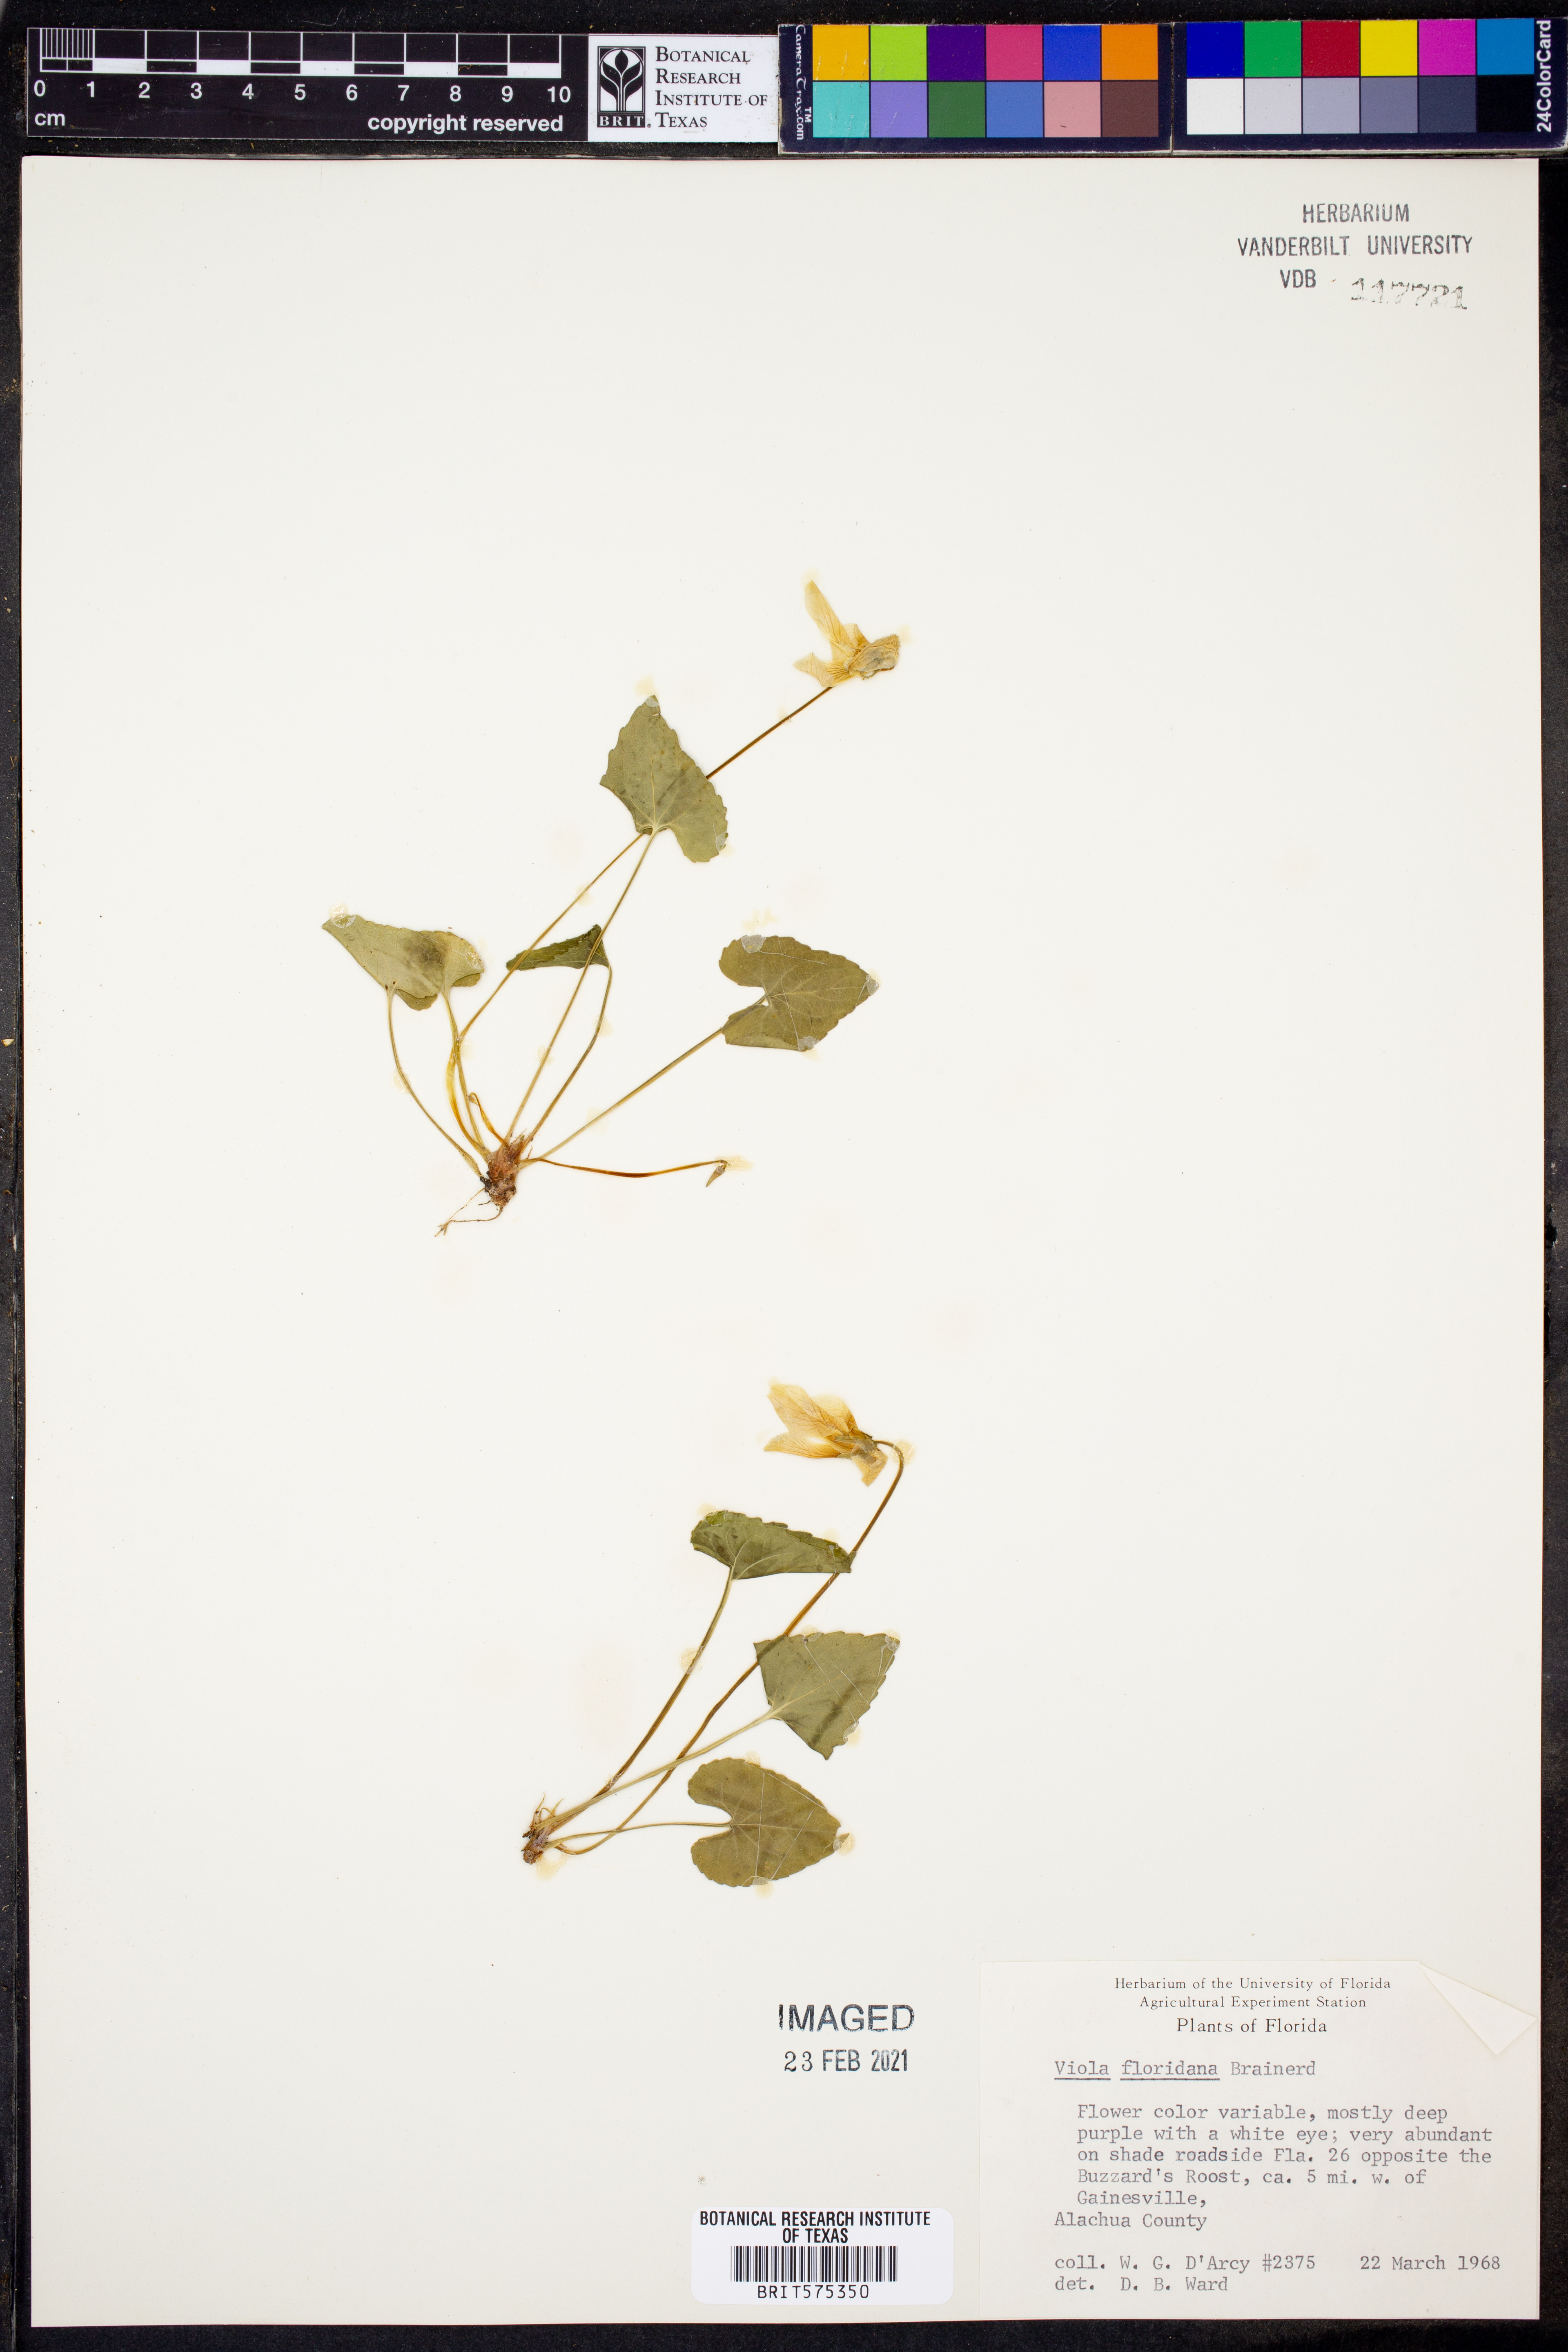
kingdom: Plantae
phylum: Tracheophyta
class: Magnoliopsida
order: Malpighiales
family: Violaceae
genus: Viola
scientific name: Viola floridana
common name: Florida violet
